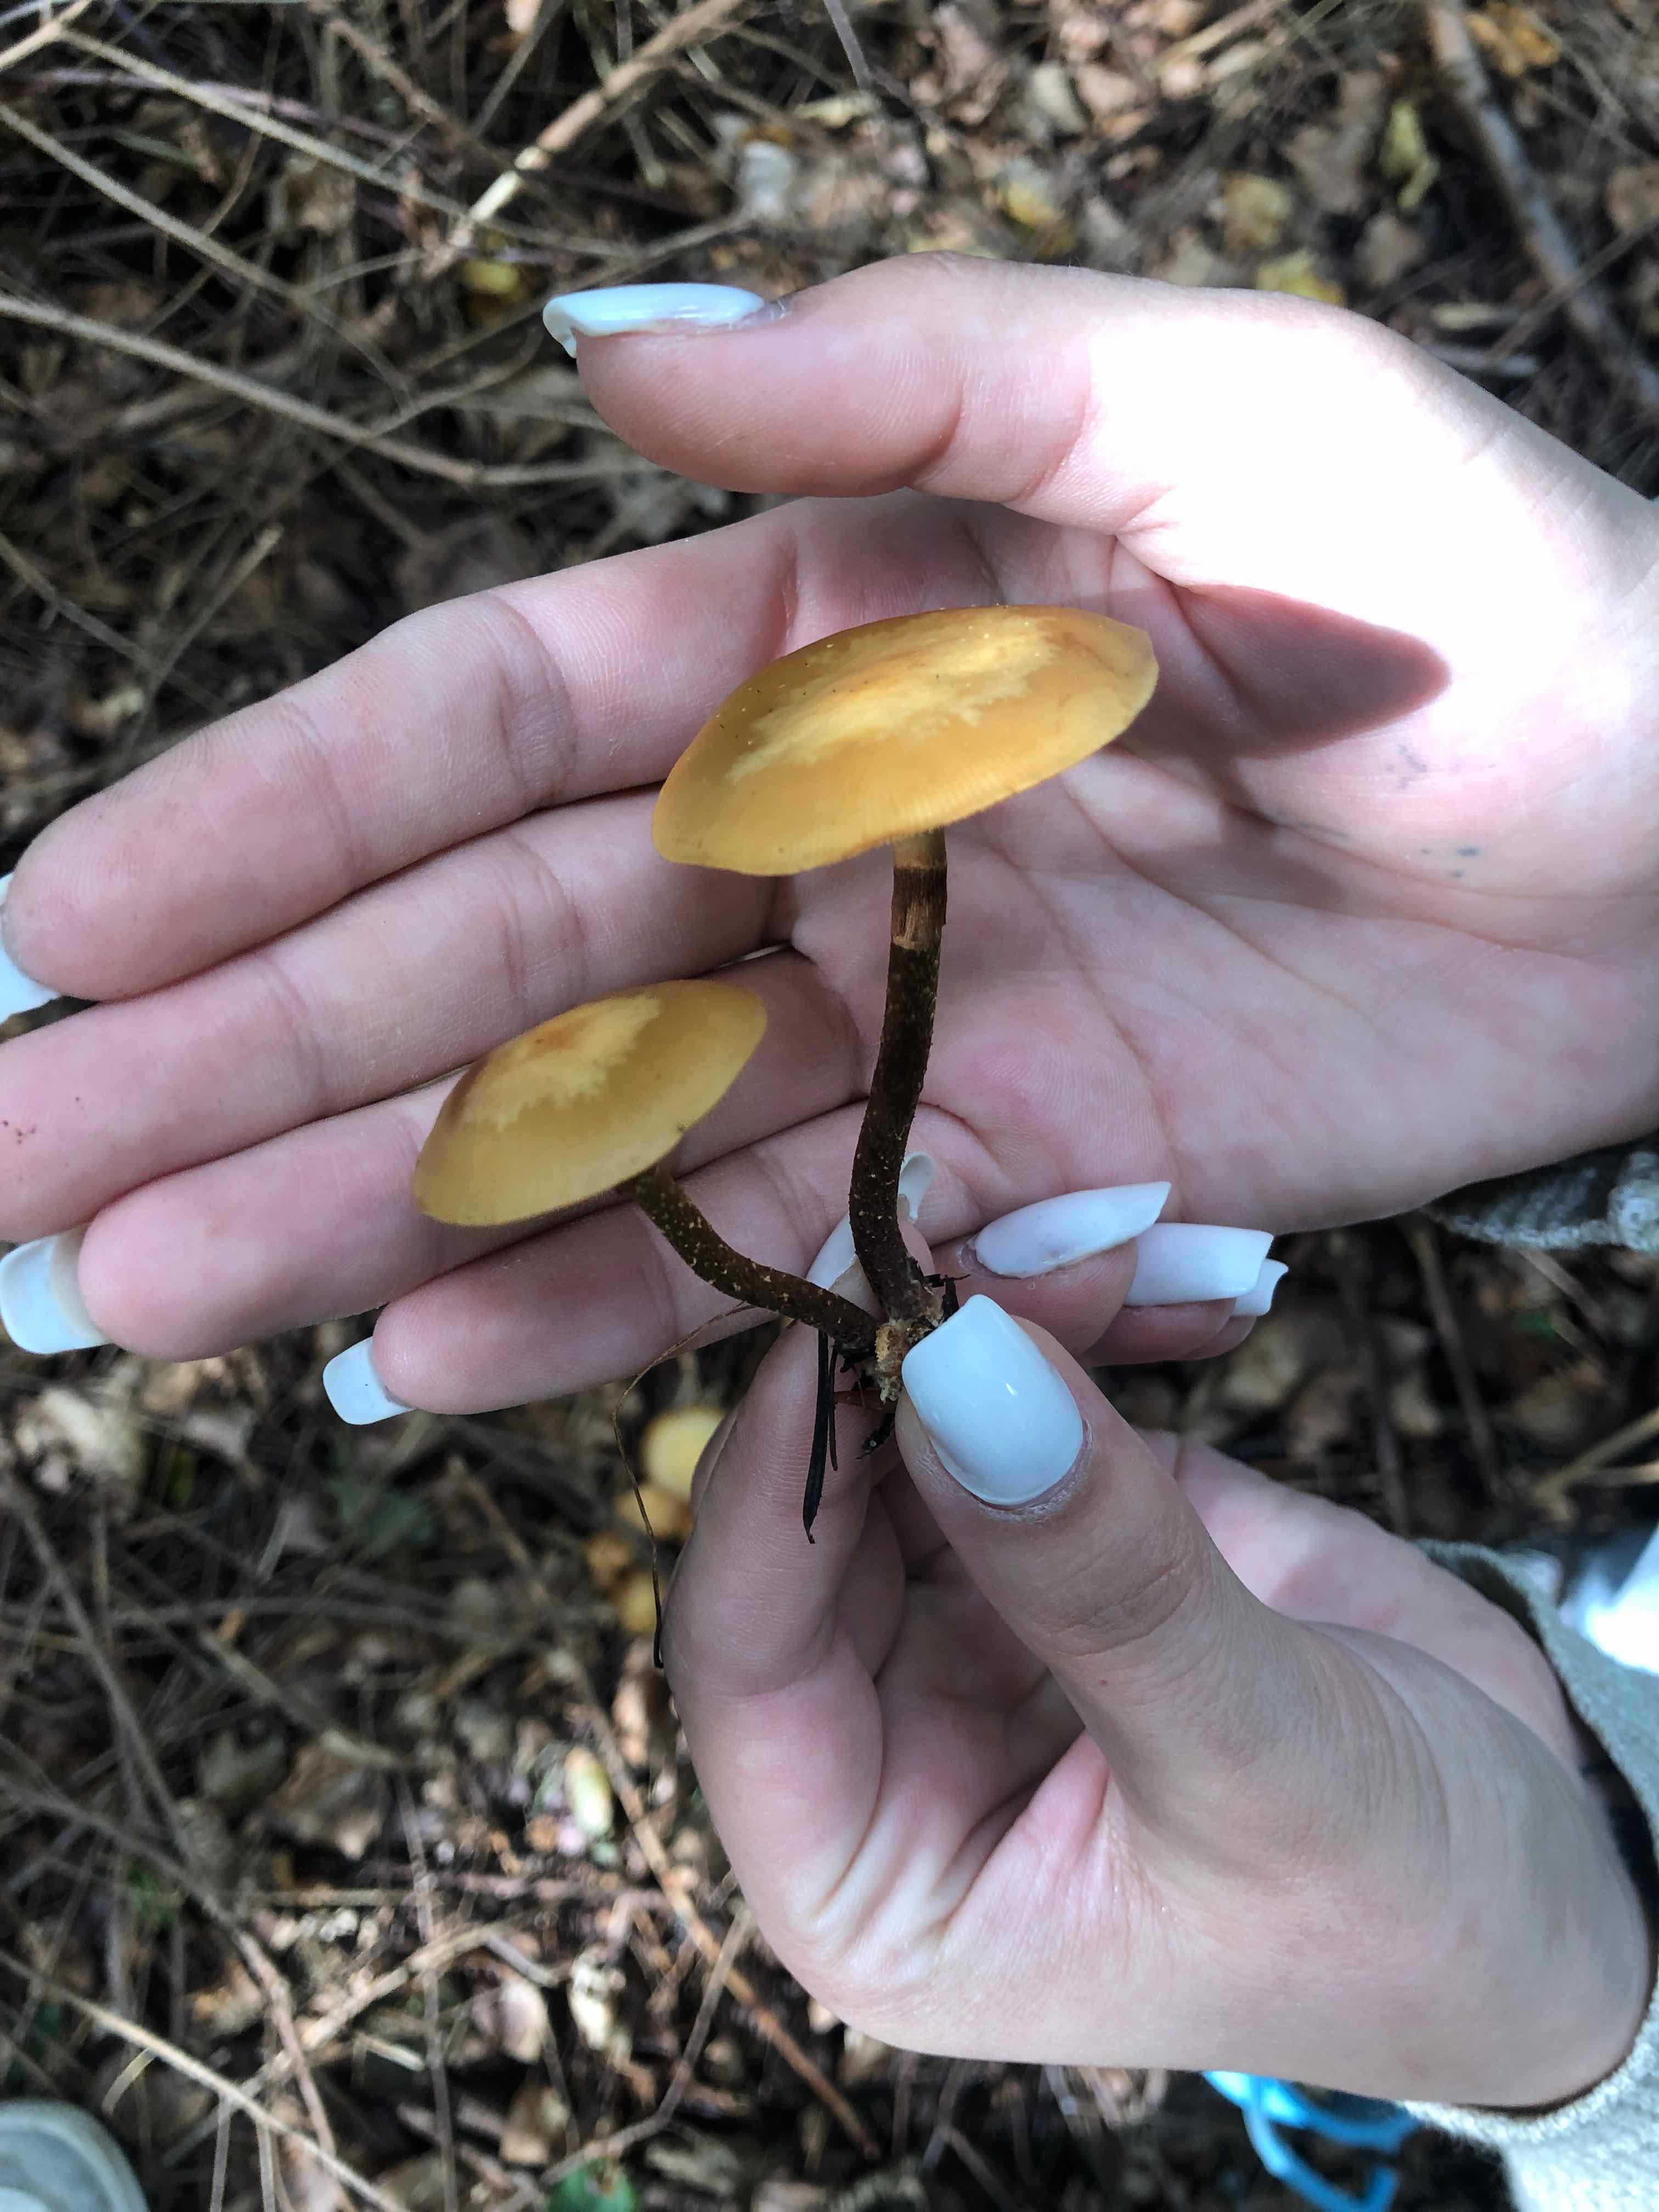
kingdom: Fungi
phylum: Basidiomycota
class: Agaricomycetes
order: Agaricales
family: Strophariaceae
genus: Kuehneromyces
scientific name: Kuehneromyces mutabilis
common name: foranderlig skælhat
